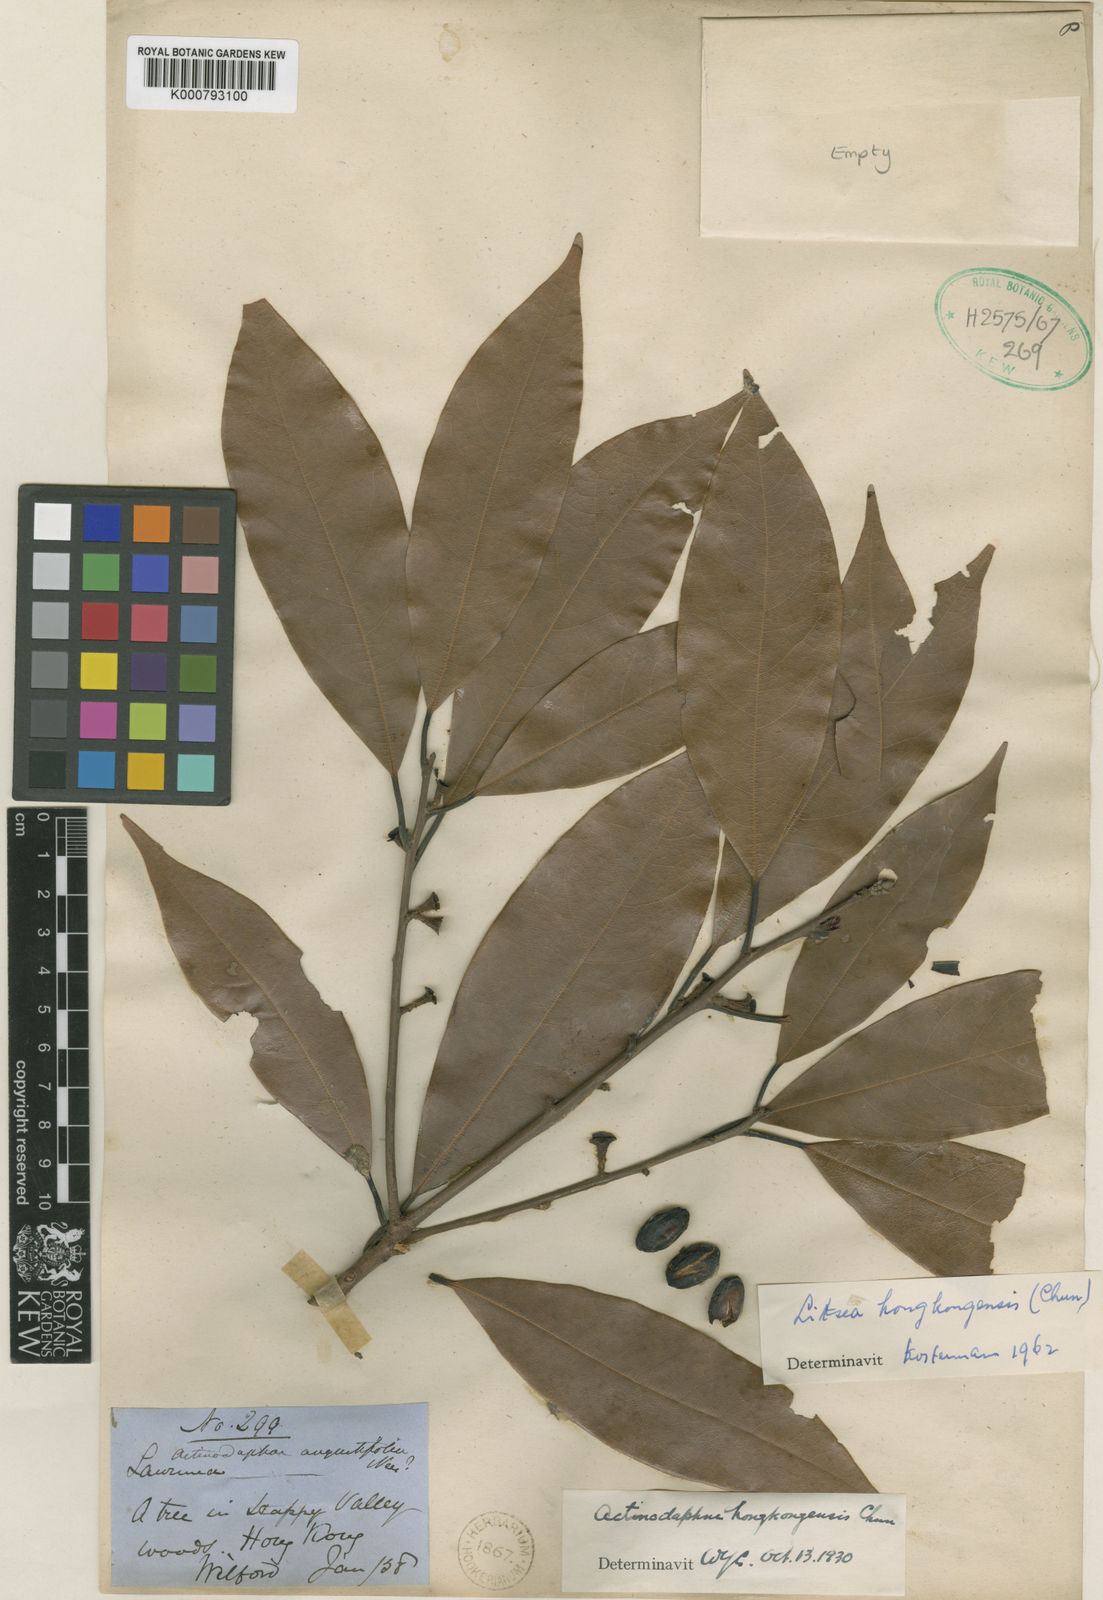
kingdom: Plantae
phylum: Tracheophyta
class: Magnoliopsida
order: Laurales
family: Lauraceae
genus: Litsea
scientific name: Litsea
